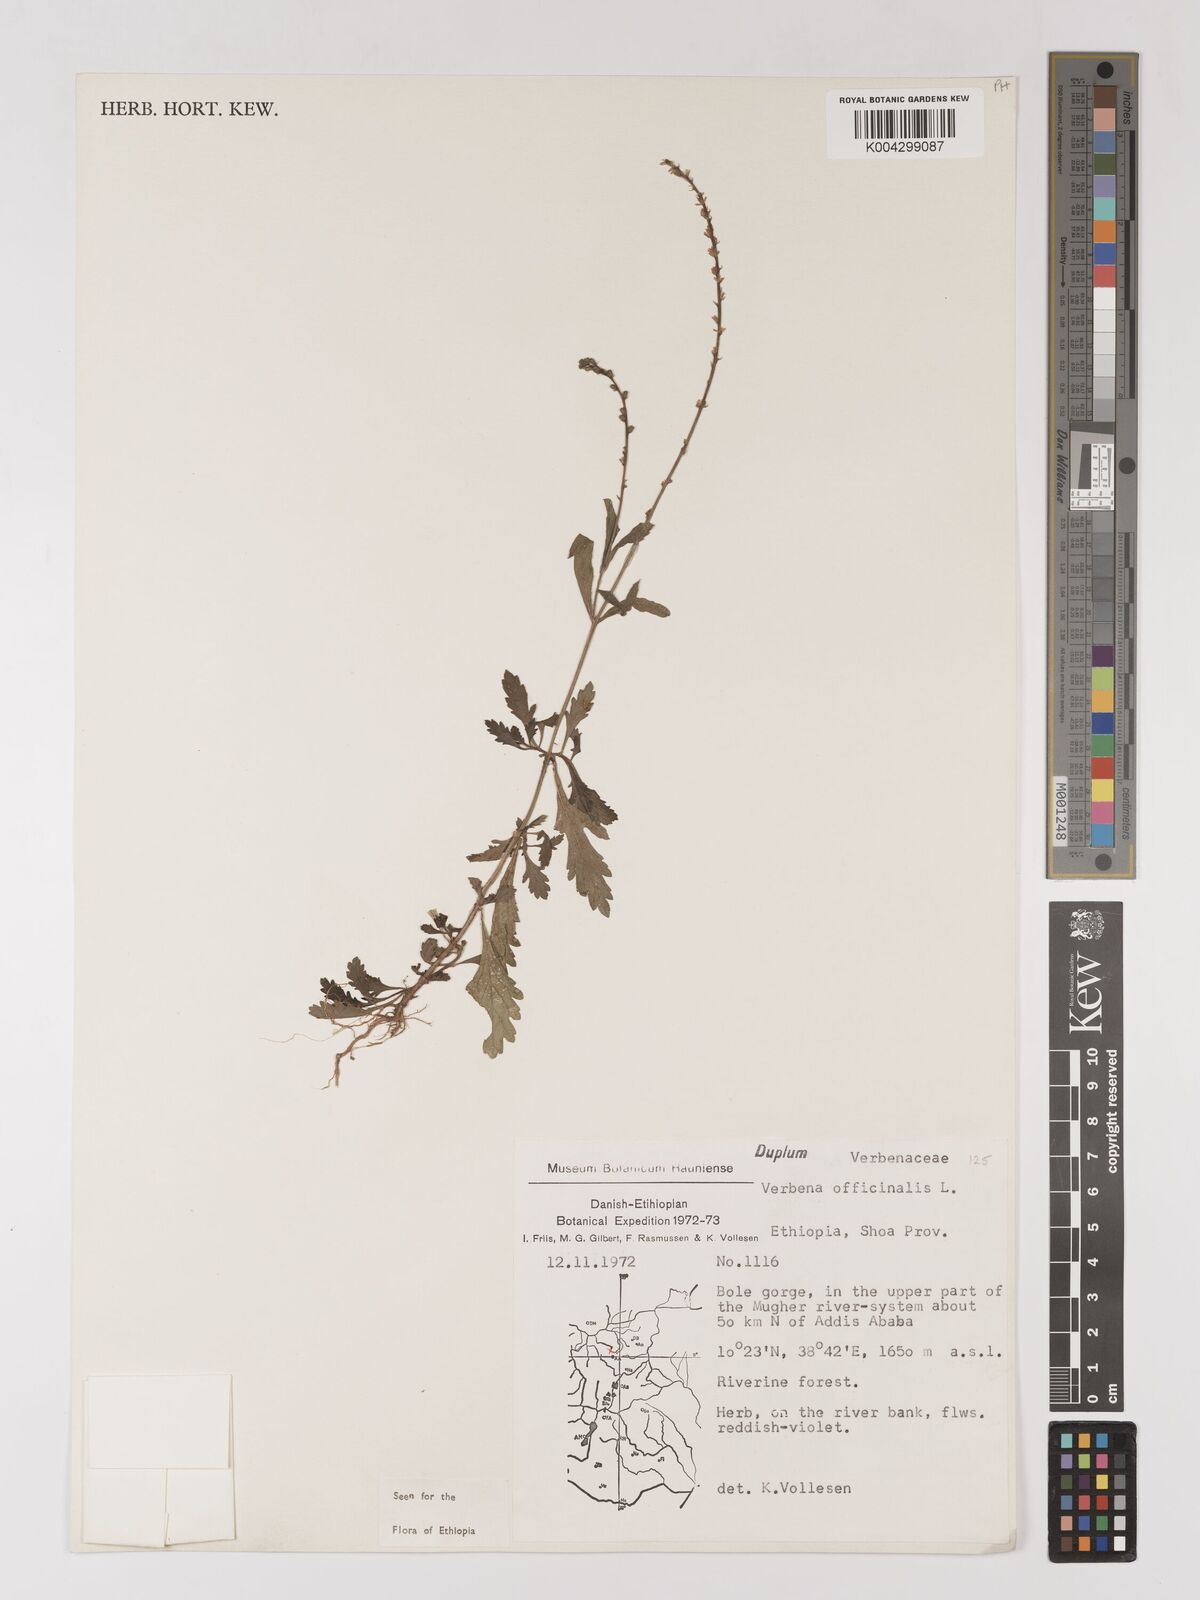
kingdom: Plantae
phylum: Tracheophyta
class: Magnoliopsida
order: Lamiales
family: Verbenaceae
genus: Verbena
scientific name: Verbena officinalis
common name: Vervain
